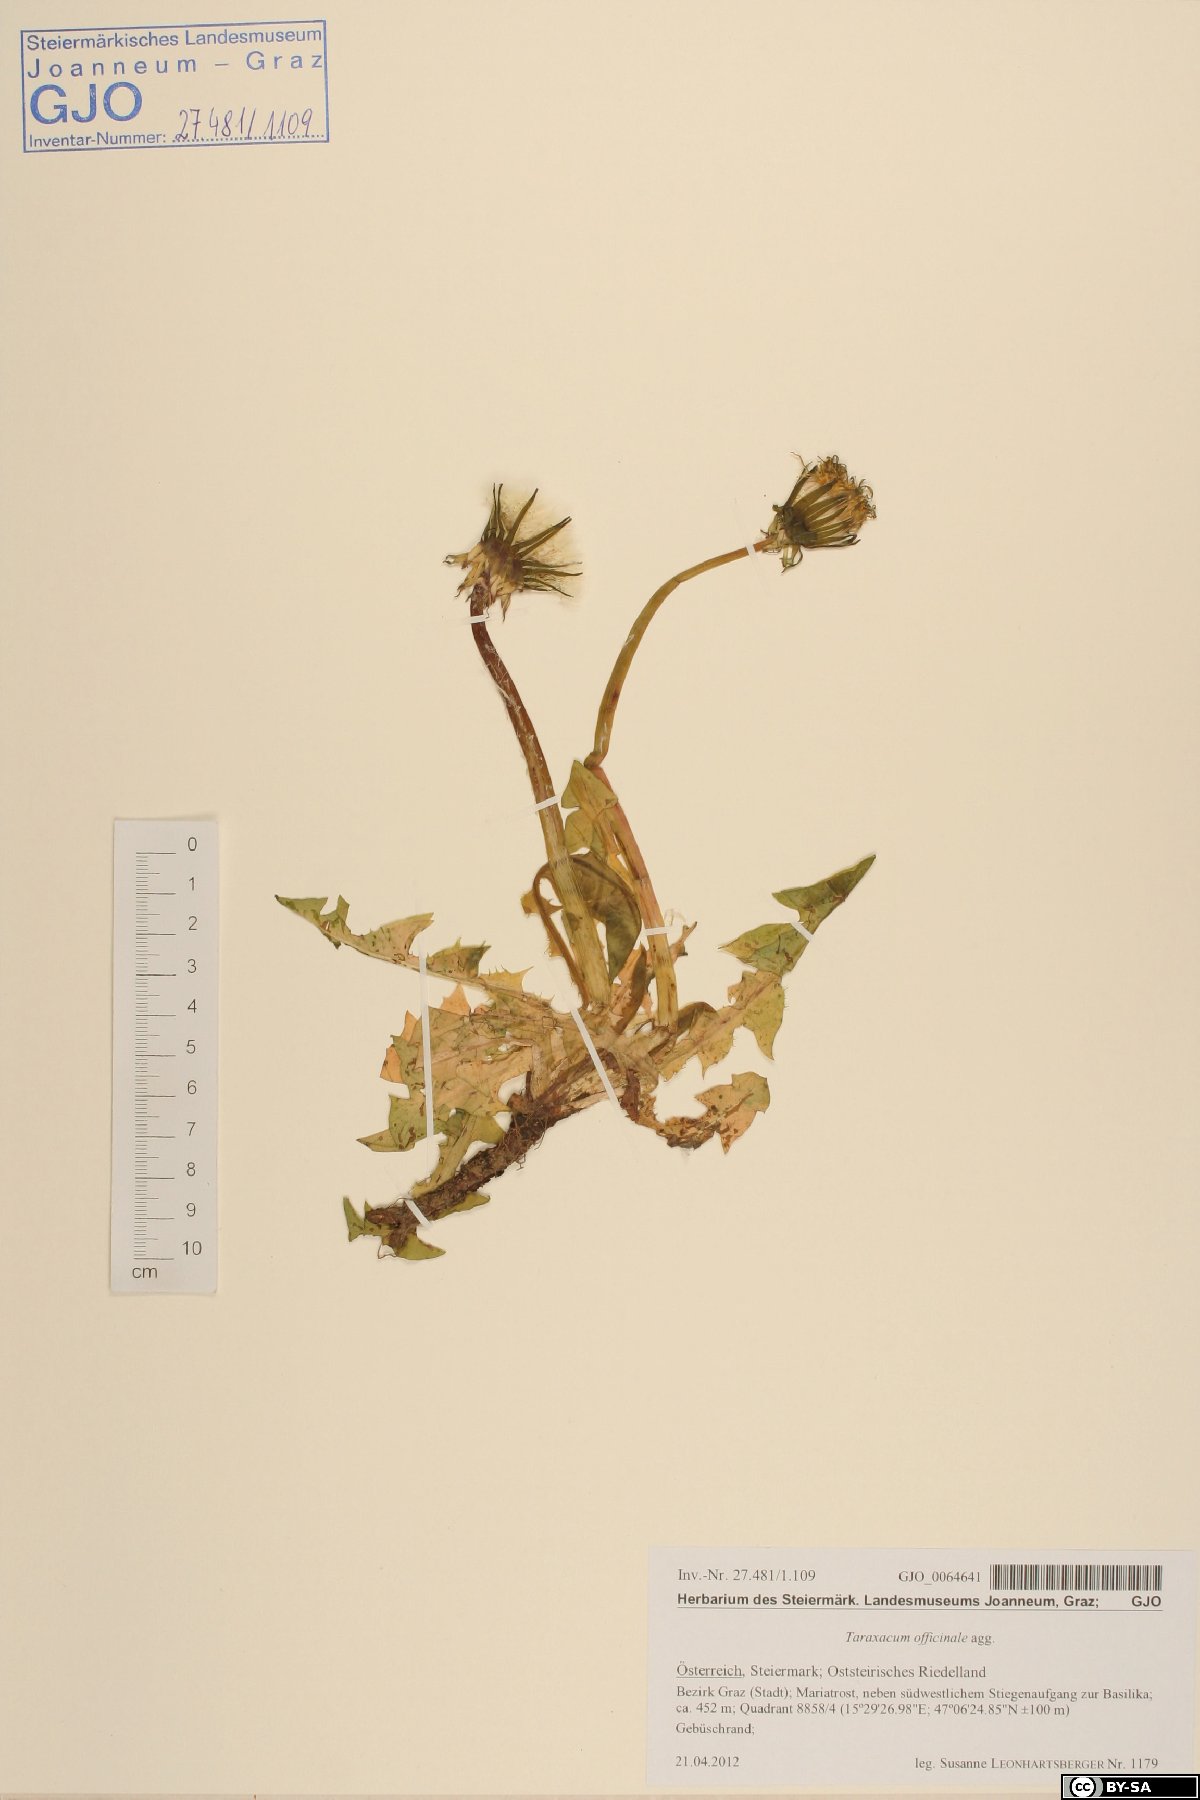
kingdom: Plantae
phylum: Tracheophyta
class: Magnoliopsida
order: Asterales
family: Asteraceae
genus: Taraxacum
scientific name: Taraxacum officinale
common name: Common dandelion
